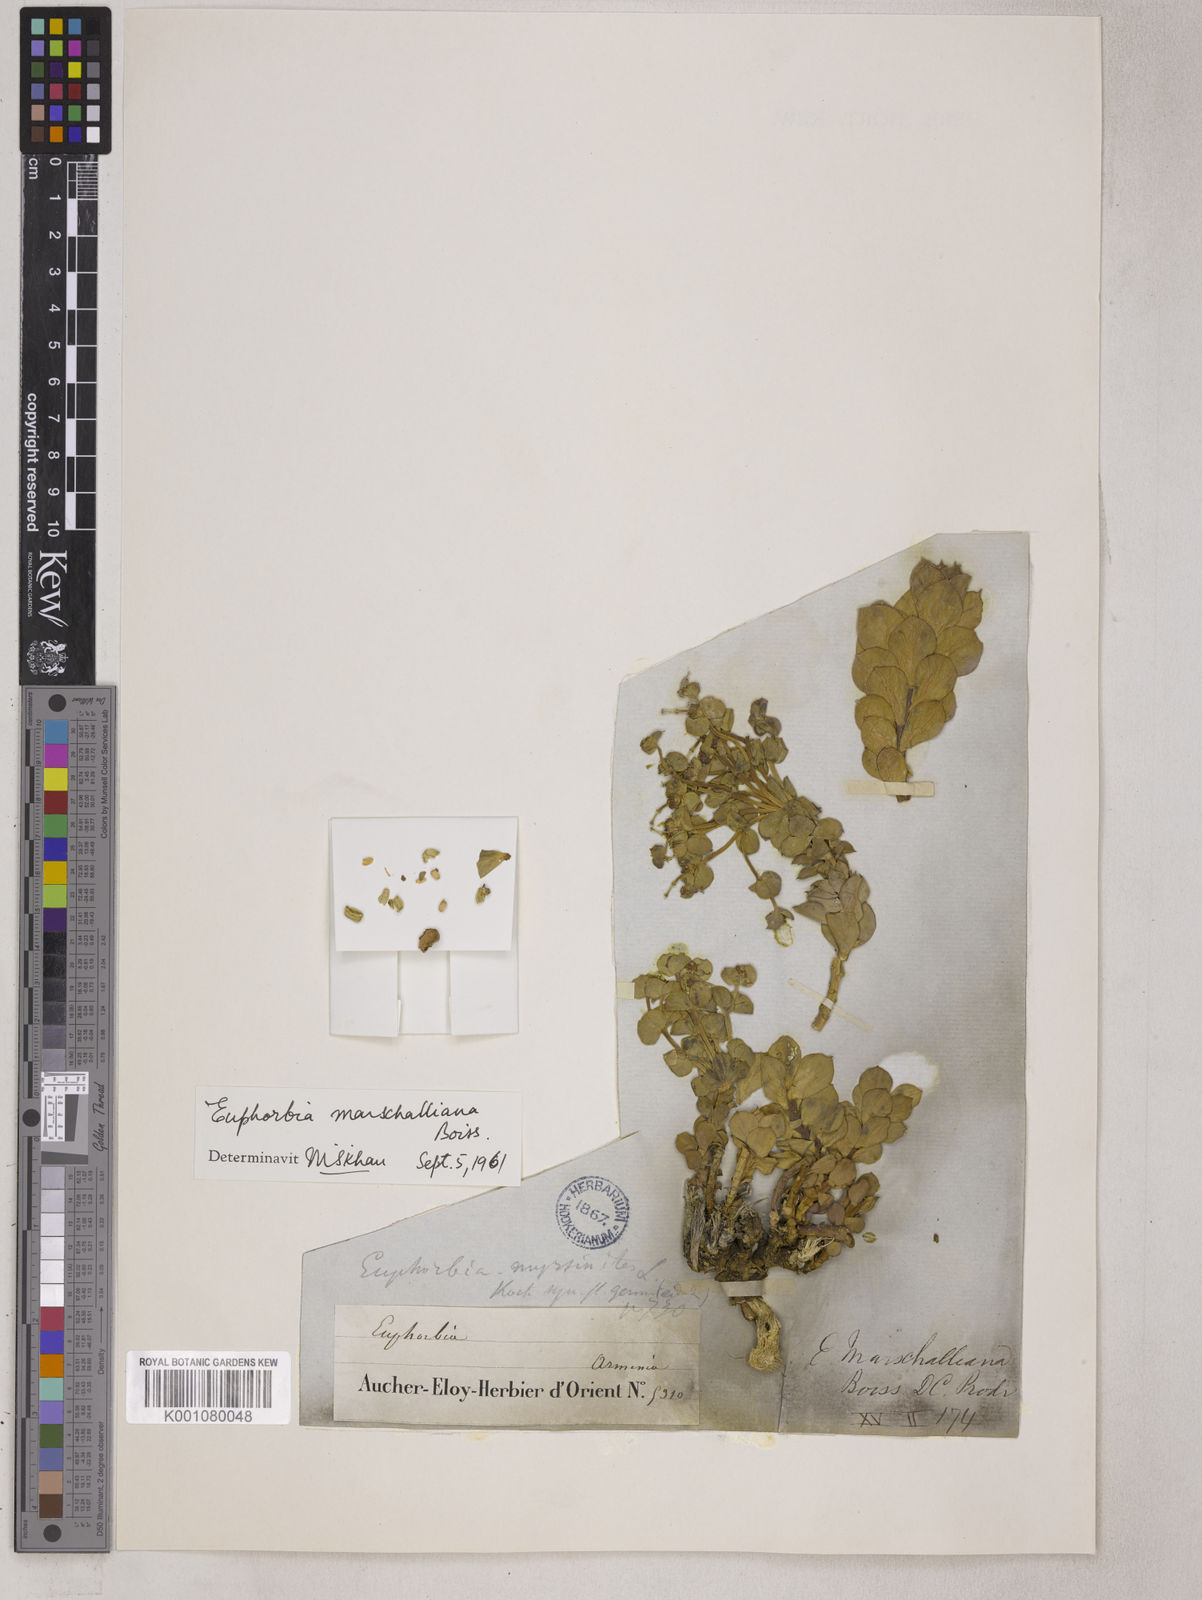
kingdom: Plantae
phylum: Tracheophyta
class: Magnoliopsida
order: Malpighiales
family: Euphorbiaceae
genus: Euphorbia
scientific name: Euphorbia marschalliana
